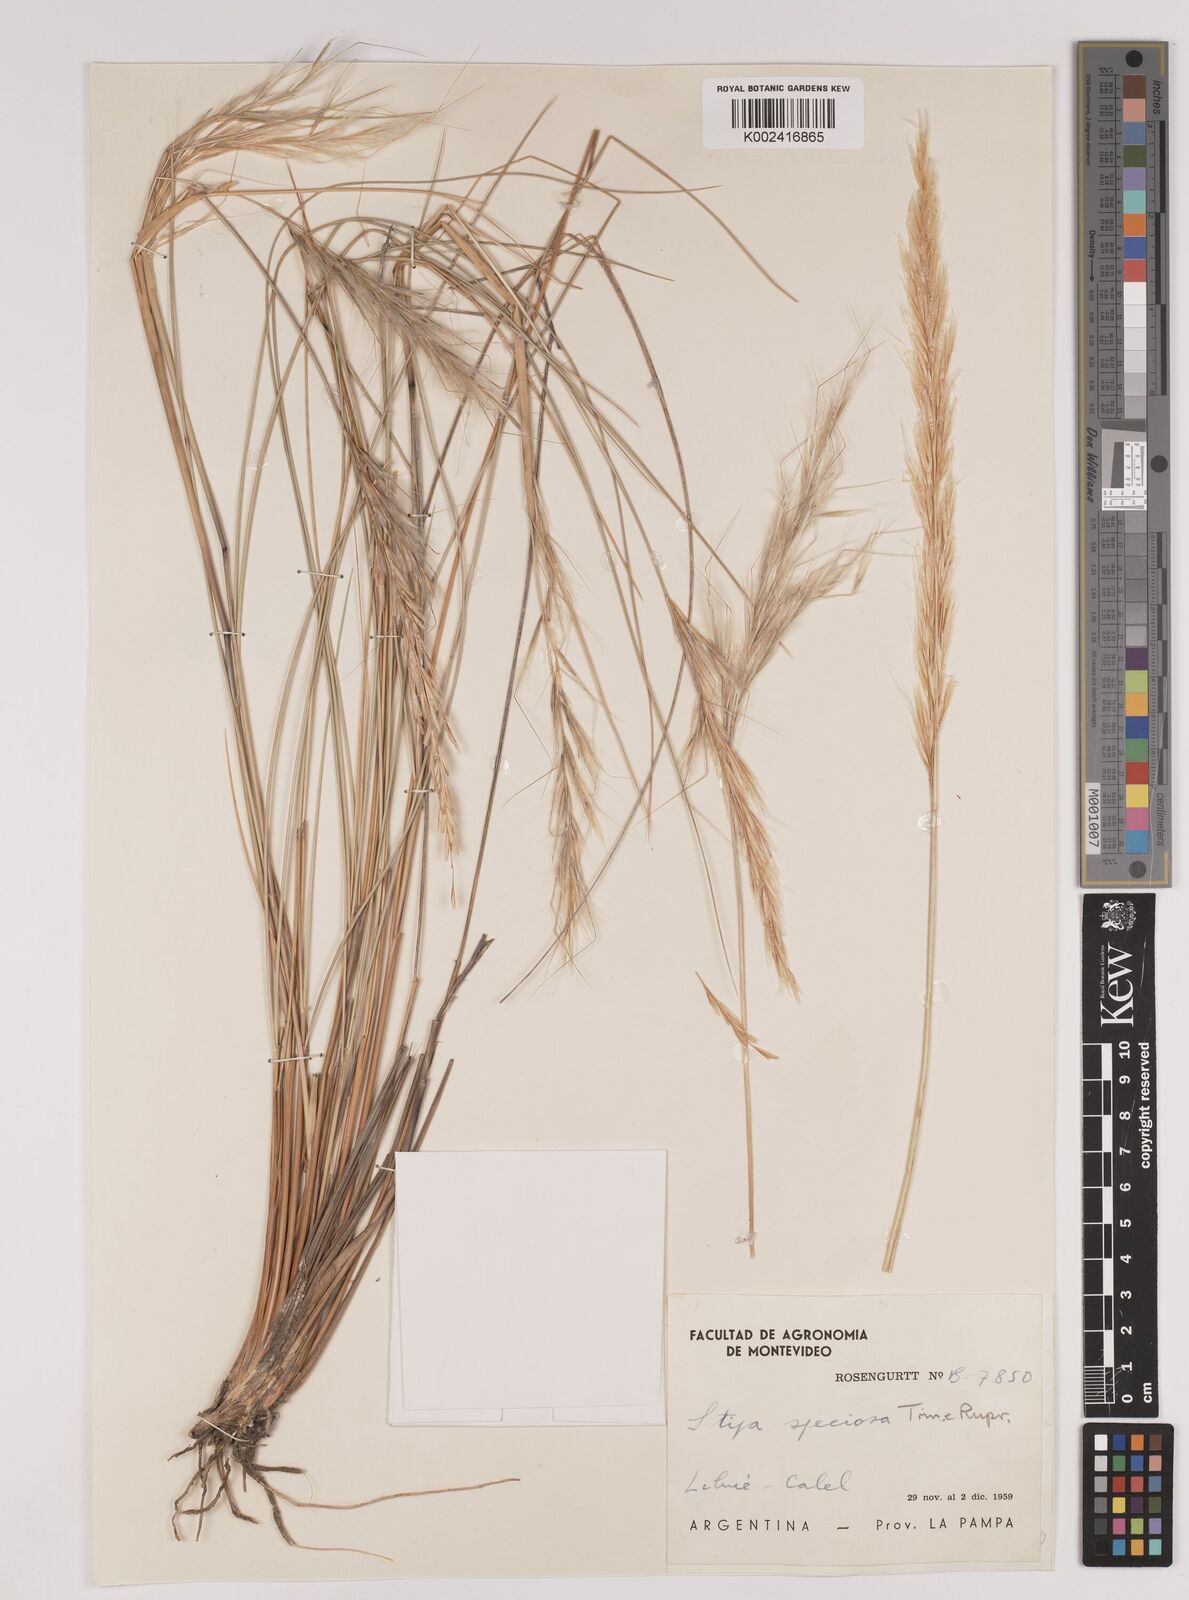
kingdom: Plantae
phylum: Tracheophyta
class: Liliopsida
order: Poales
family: Poaceae
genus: Pappostipa
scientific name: Pappostipa speciosa
